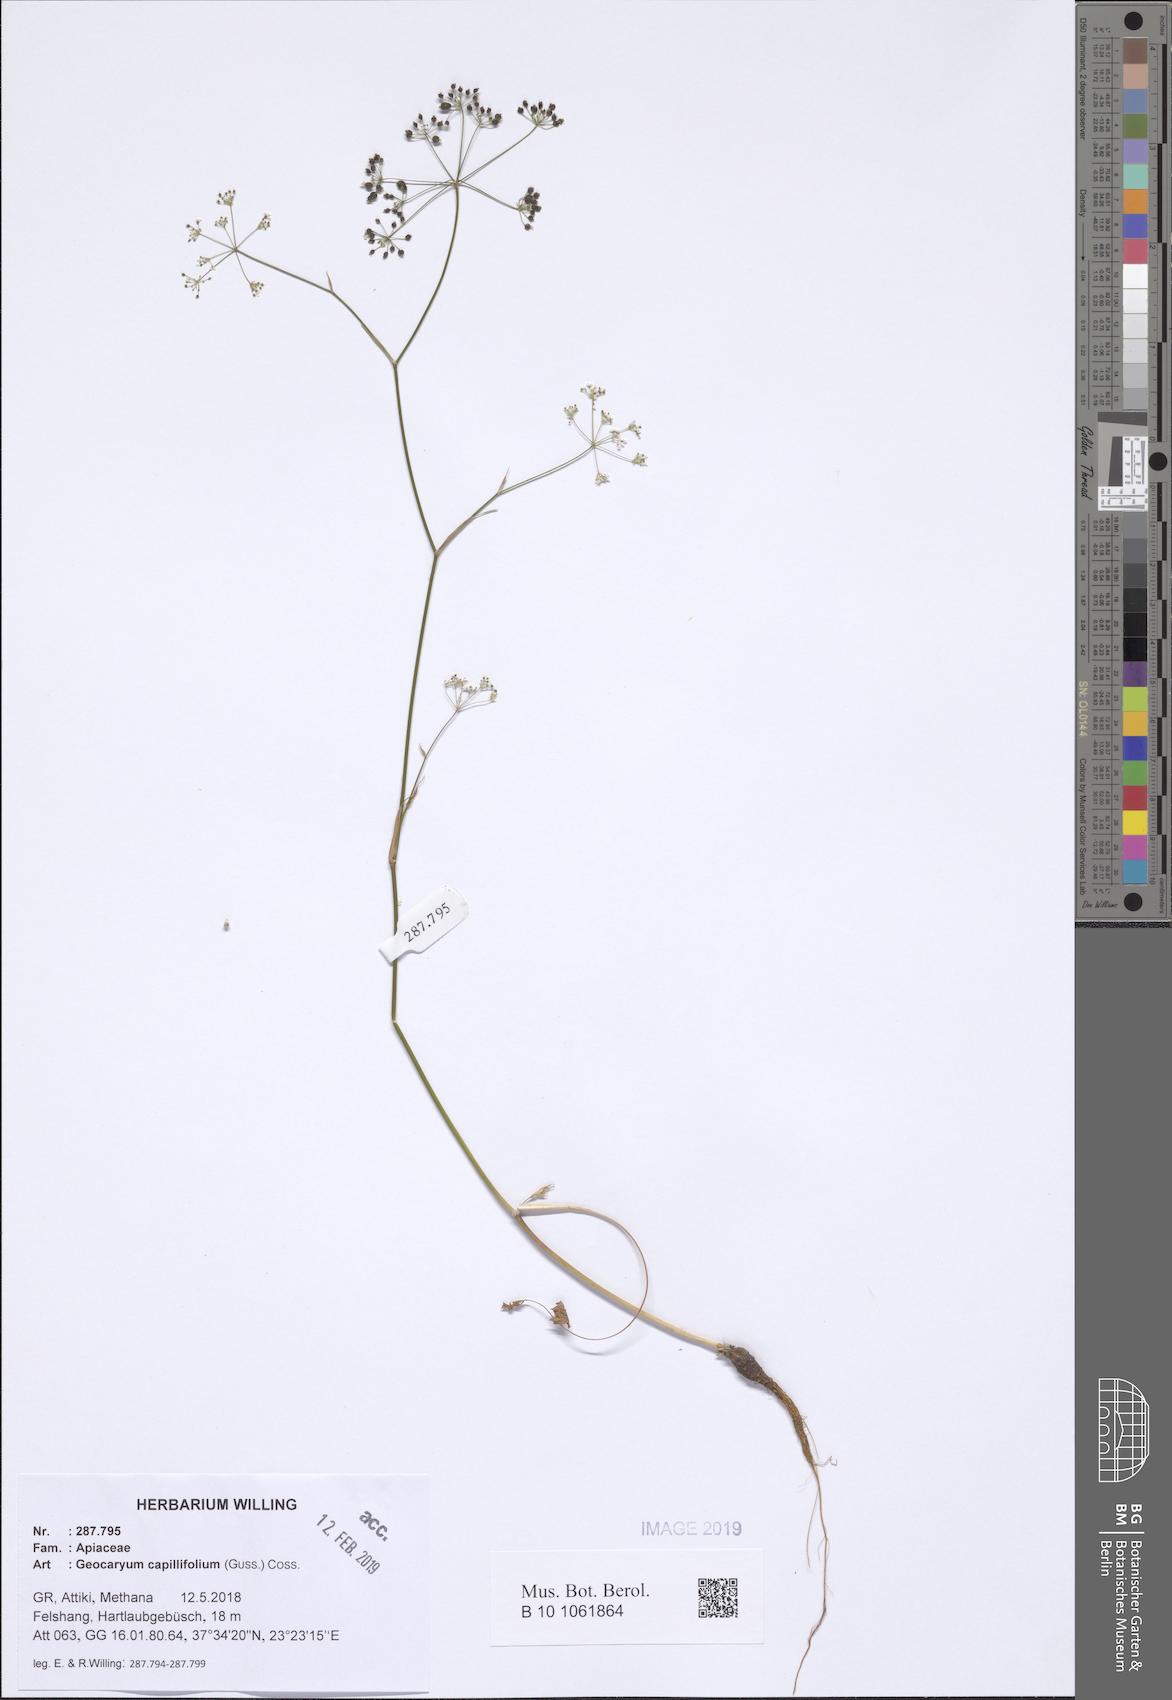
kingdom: Plantae
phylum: Tracheophyta
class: Magnoliopsida
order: Apiales
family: Apiaceae
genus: Geocaryum
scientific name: Geocaryum capillifolium
